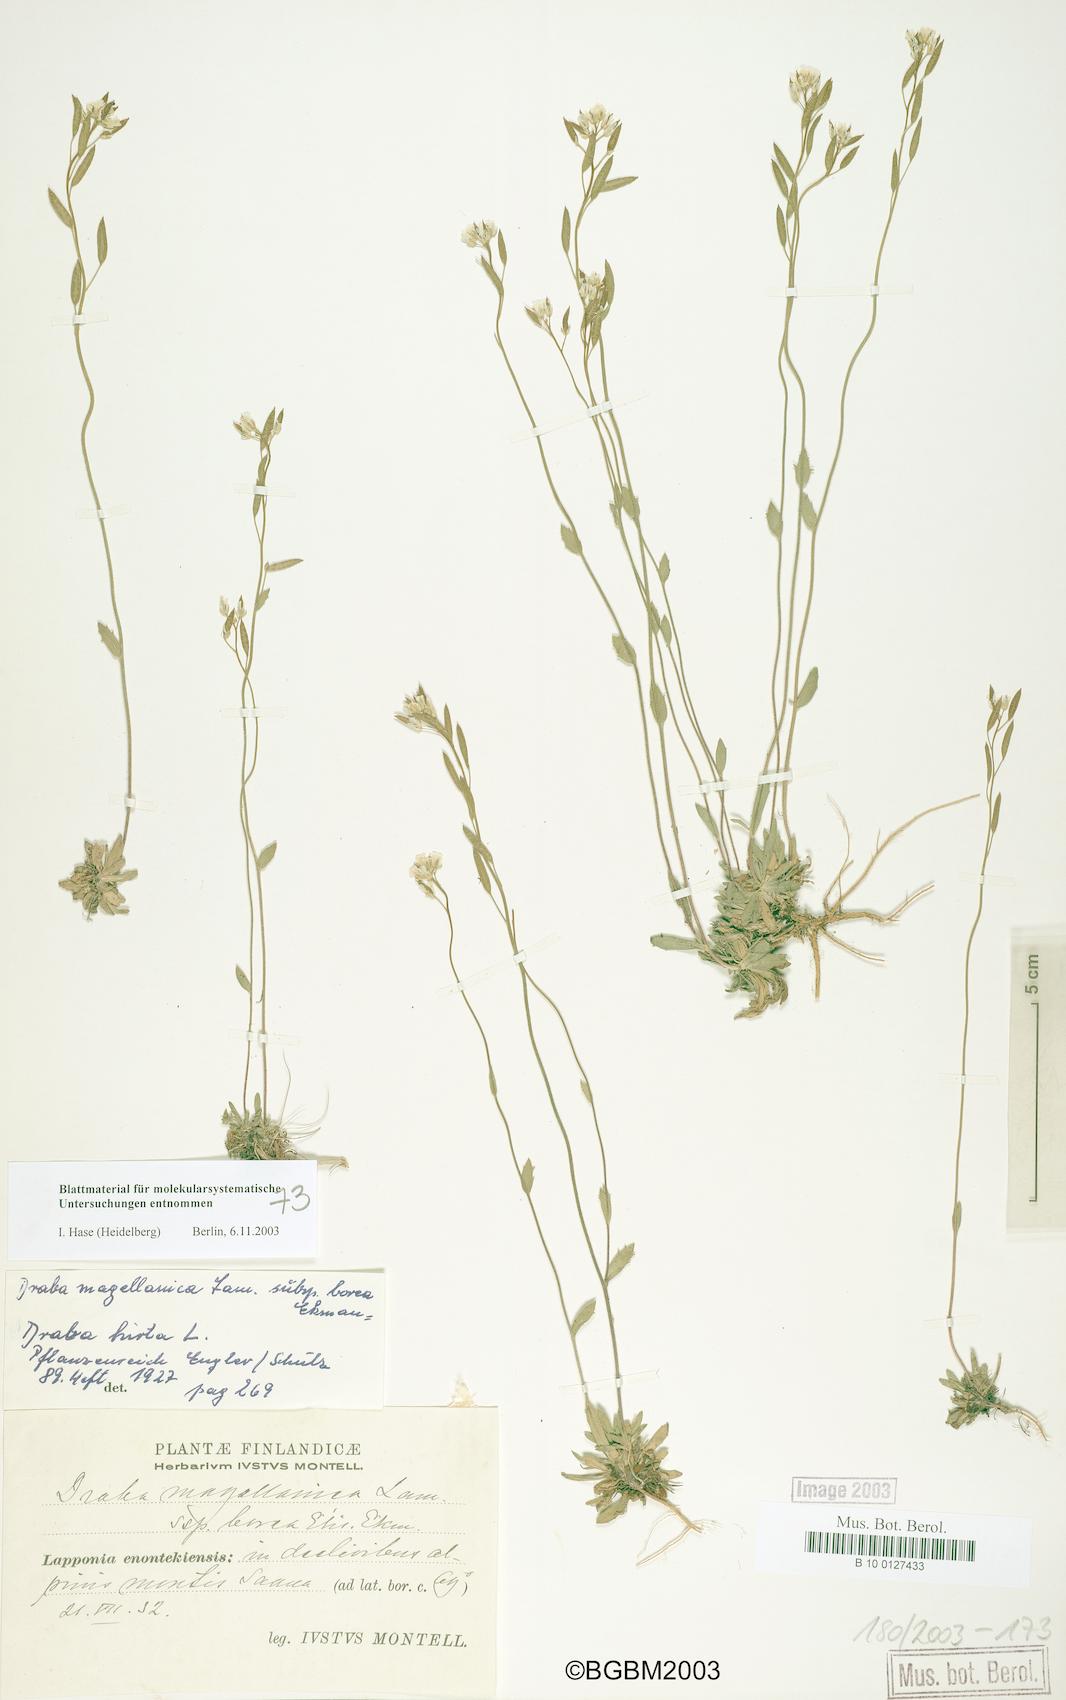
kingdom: Plantae
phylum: Tracheophyta
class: Magnoliopsida
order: Brassicales
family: Brassicaceae
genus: Draba
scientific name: Draba glabella
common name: Glaucous draba
